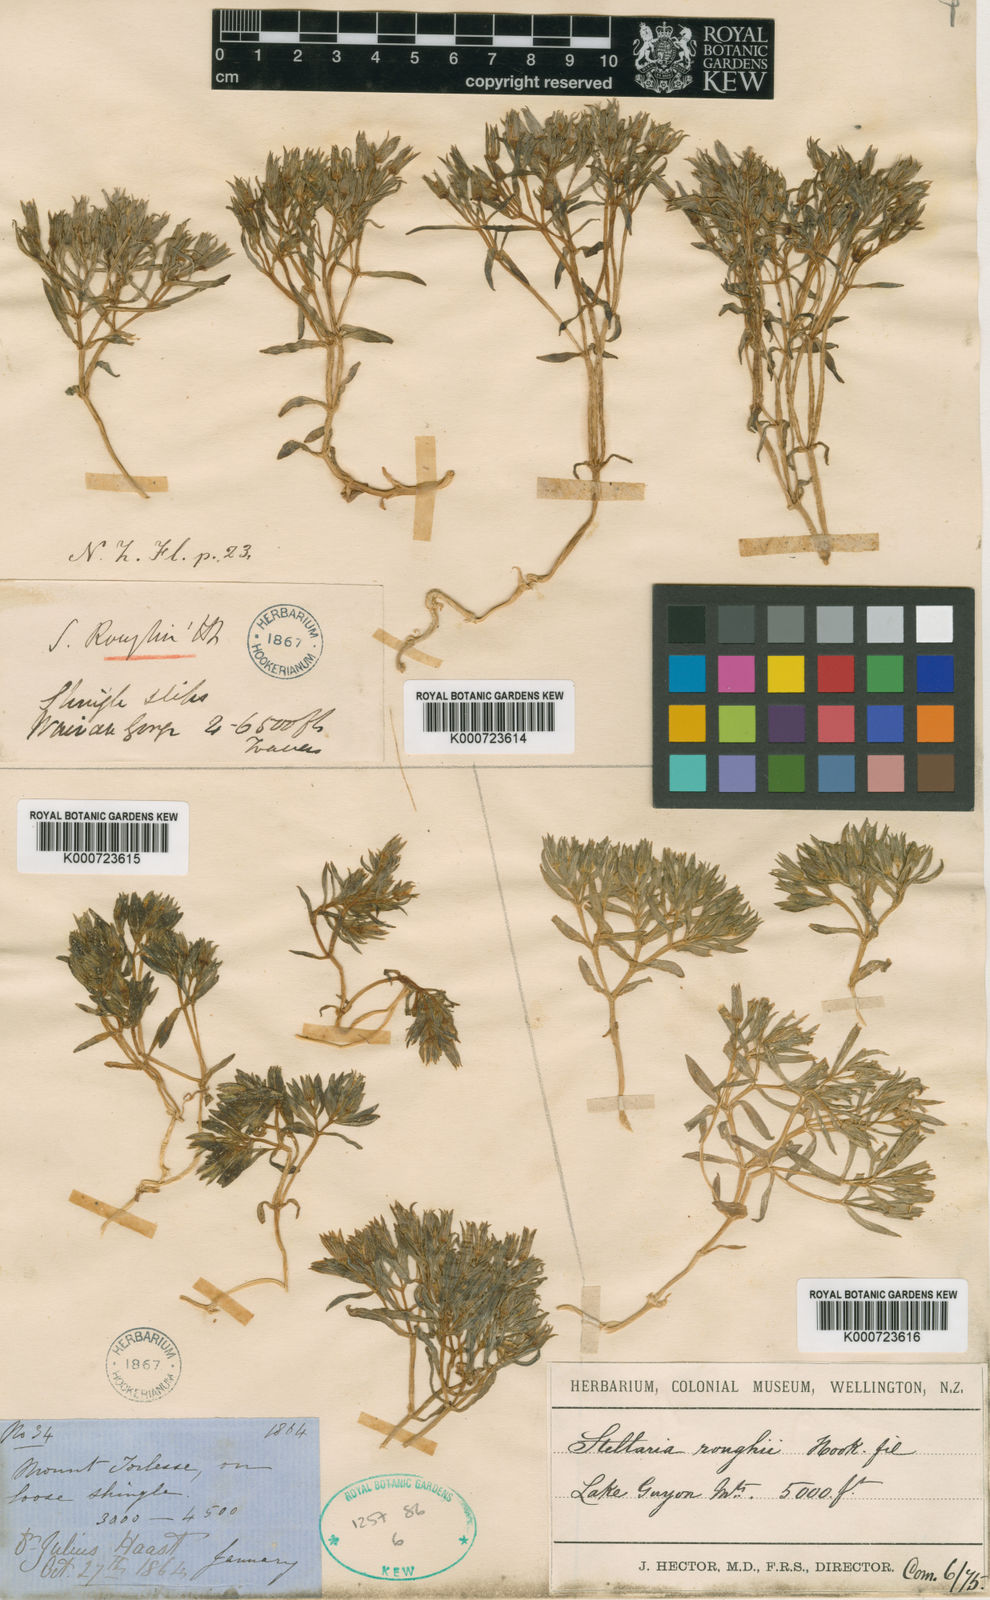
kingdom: Plantae
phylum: Tracheophyta
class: Magnoliopsida
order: Caryophyllales
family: Caryophyllaceae
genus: Stellaria
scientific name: Stellaria roughii
